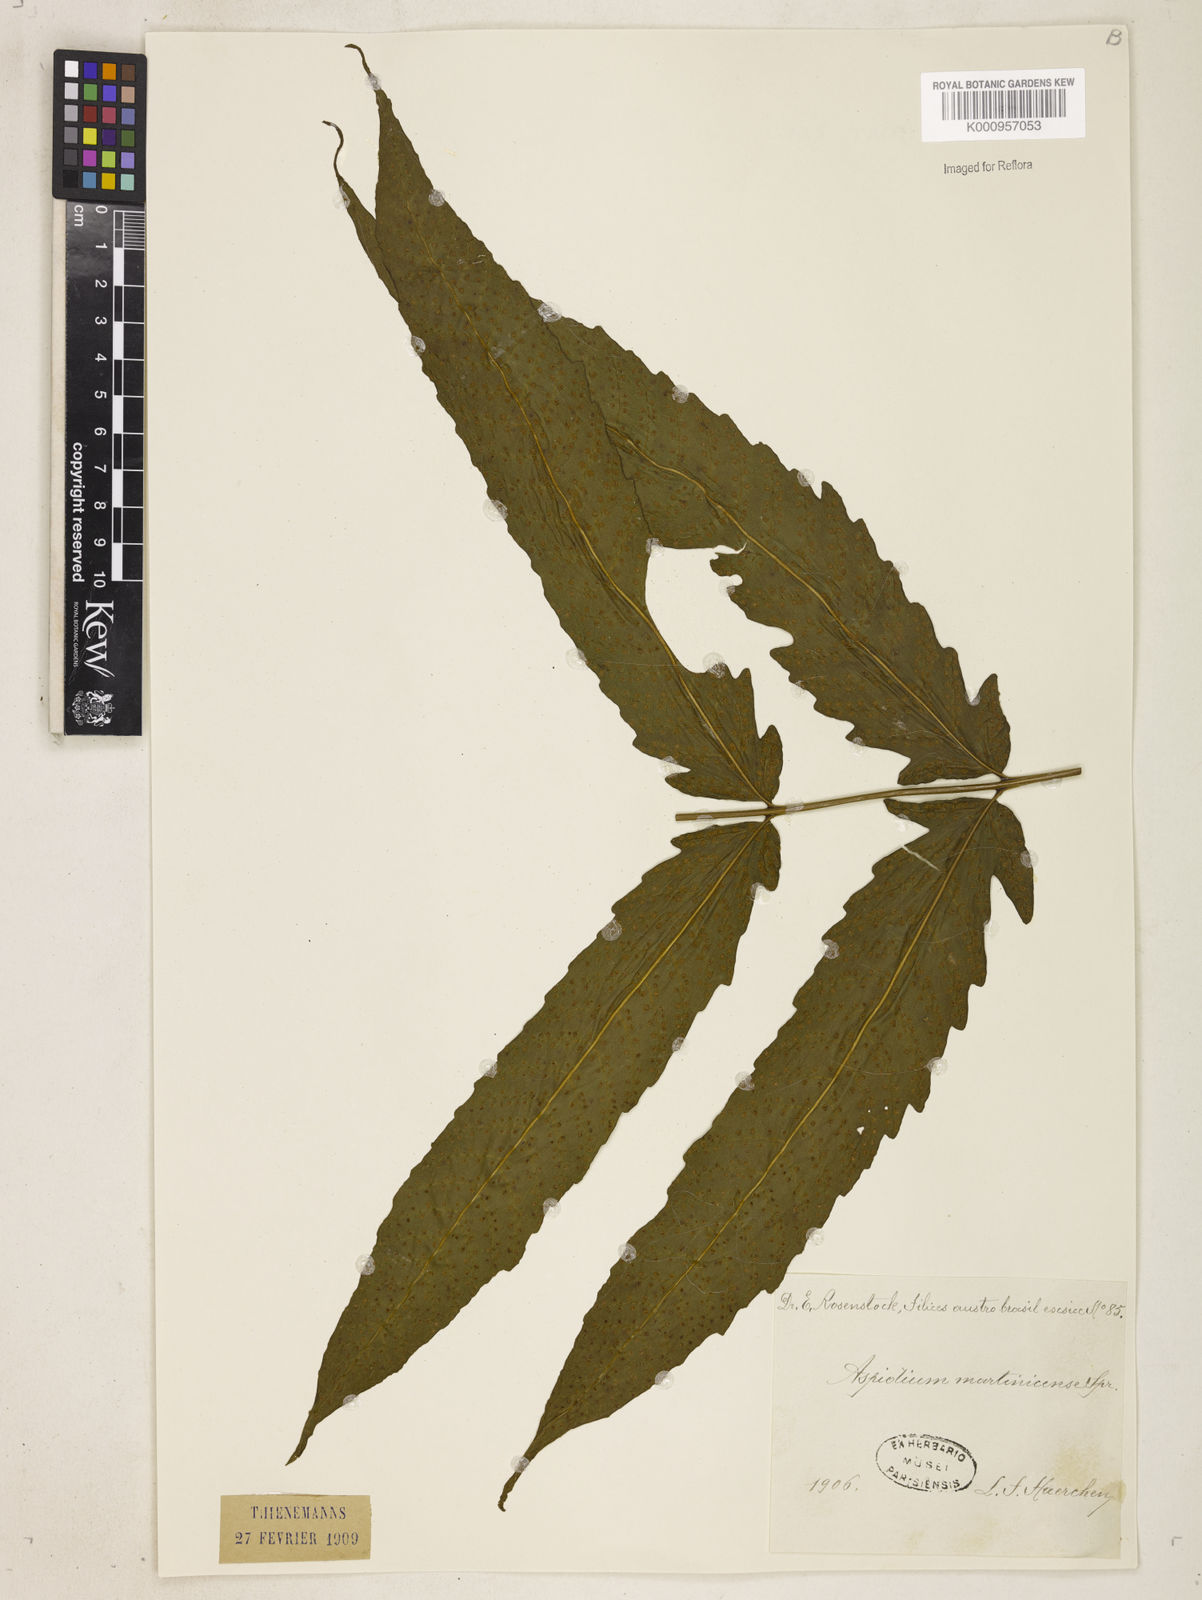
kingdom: Plantae
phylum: Tracheophyta
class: Polypodiopsida
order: Polypodiales
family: Tectariaceae
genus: Tectaria
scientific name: Tectaria incisa
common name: Incised halberd fern
